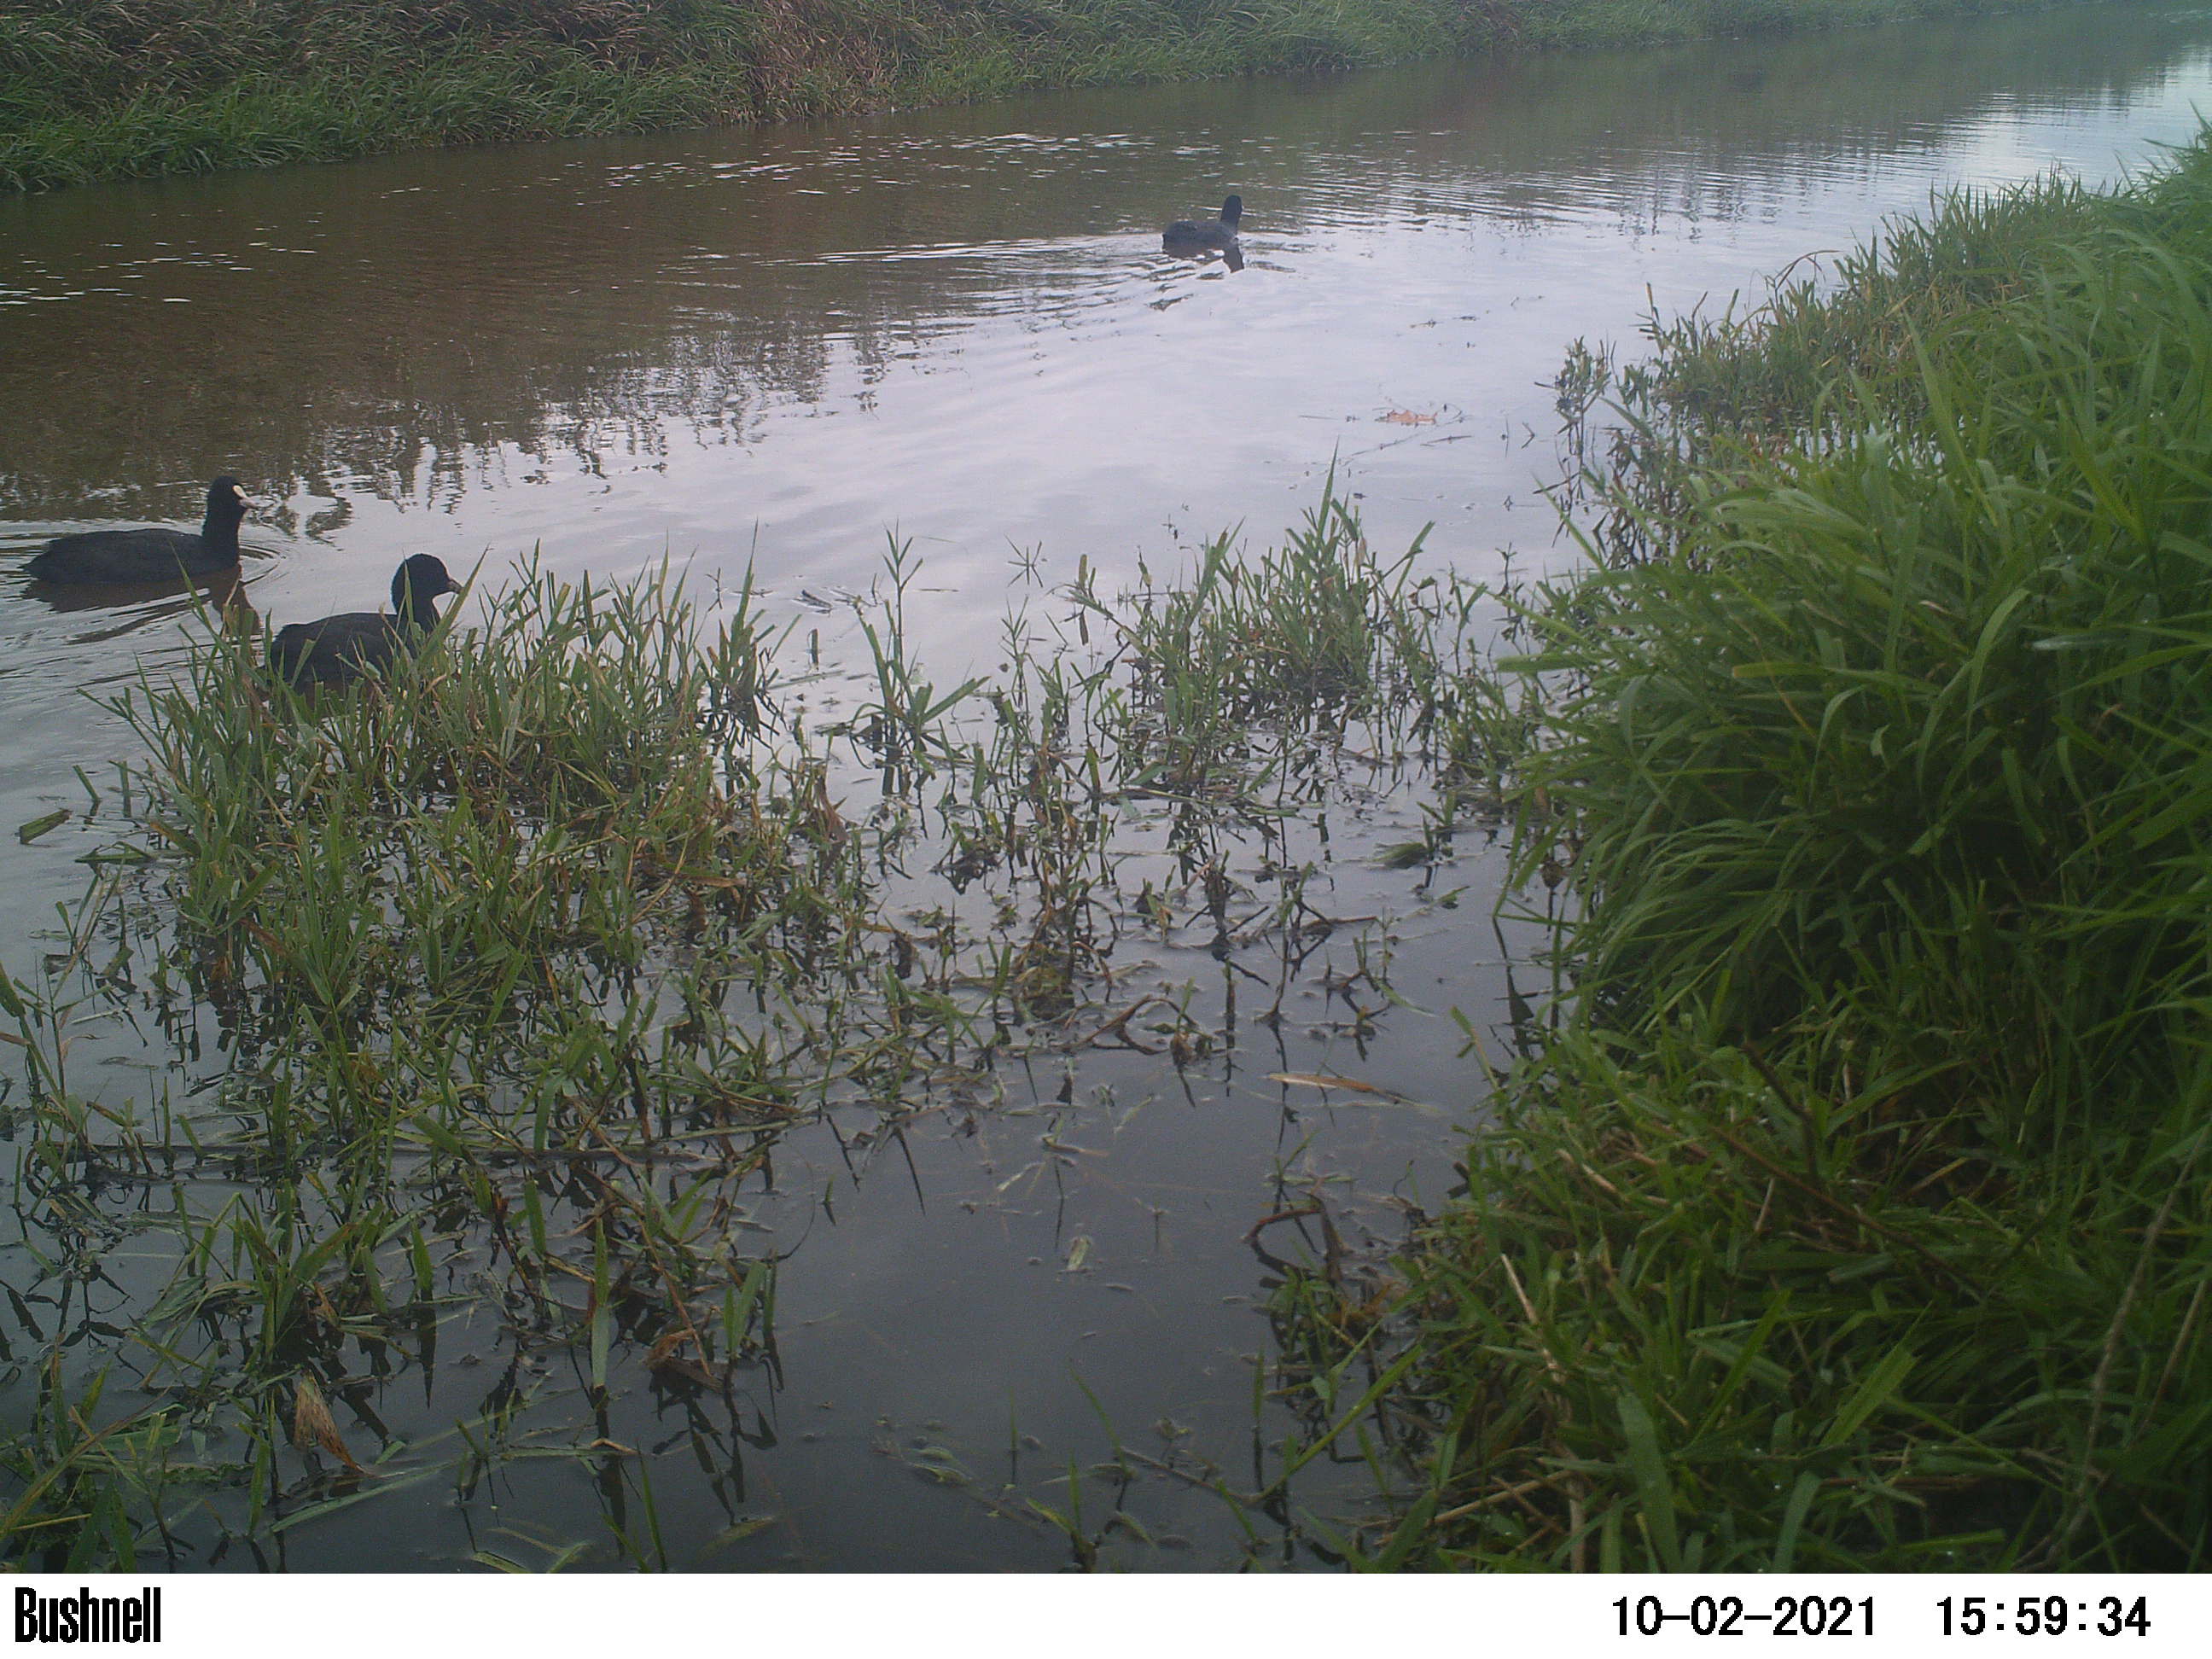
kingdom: Animalia
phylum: Chordata
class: Aves
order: Gruiformes
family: Rallidae
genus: Fulica
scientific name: Fulica atra
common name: Eurasian coot
